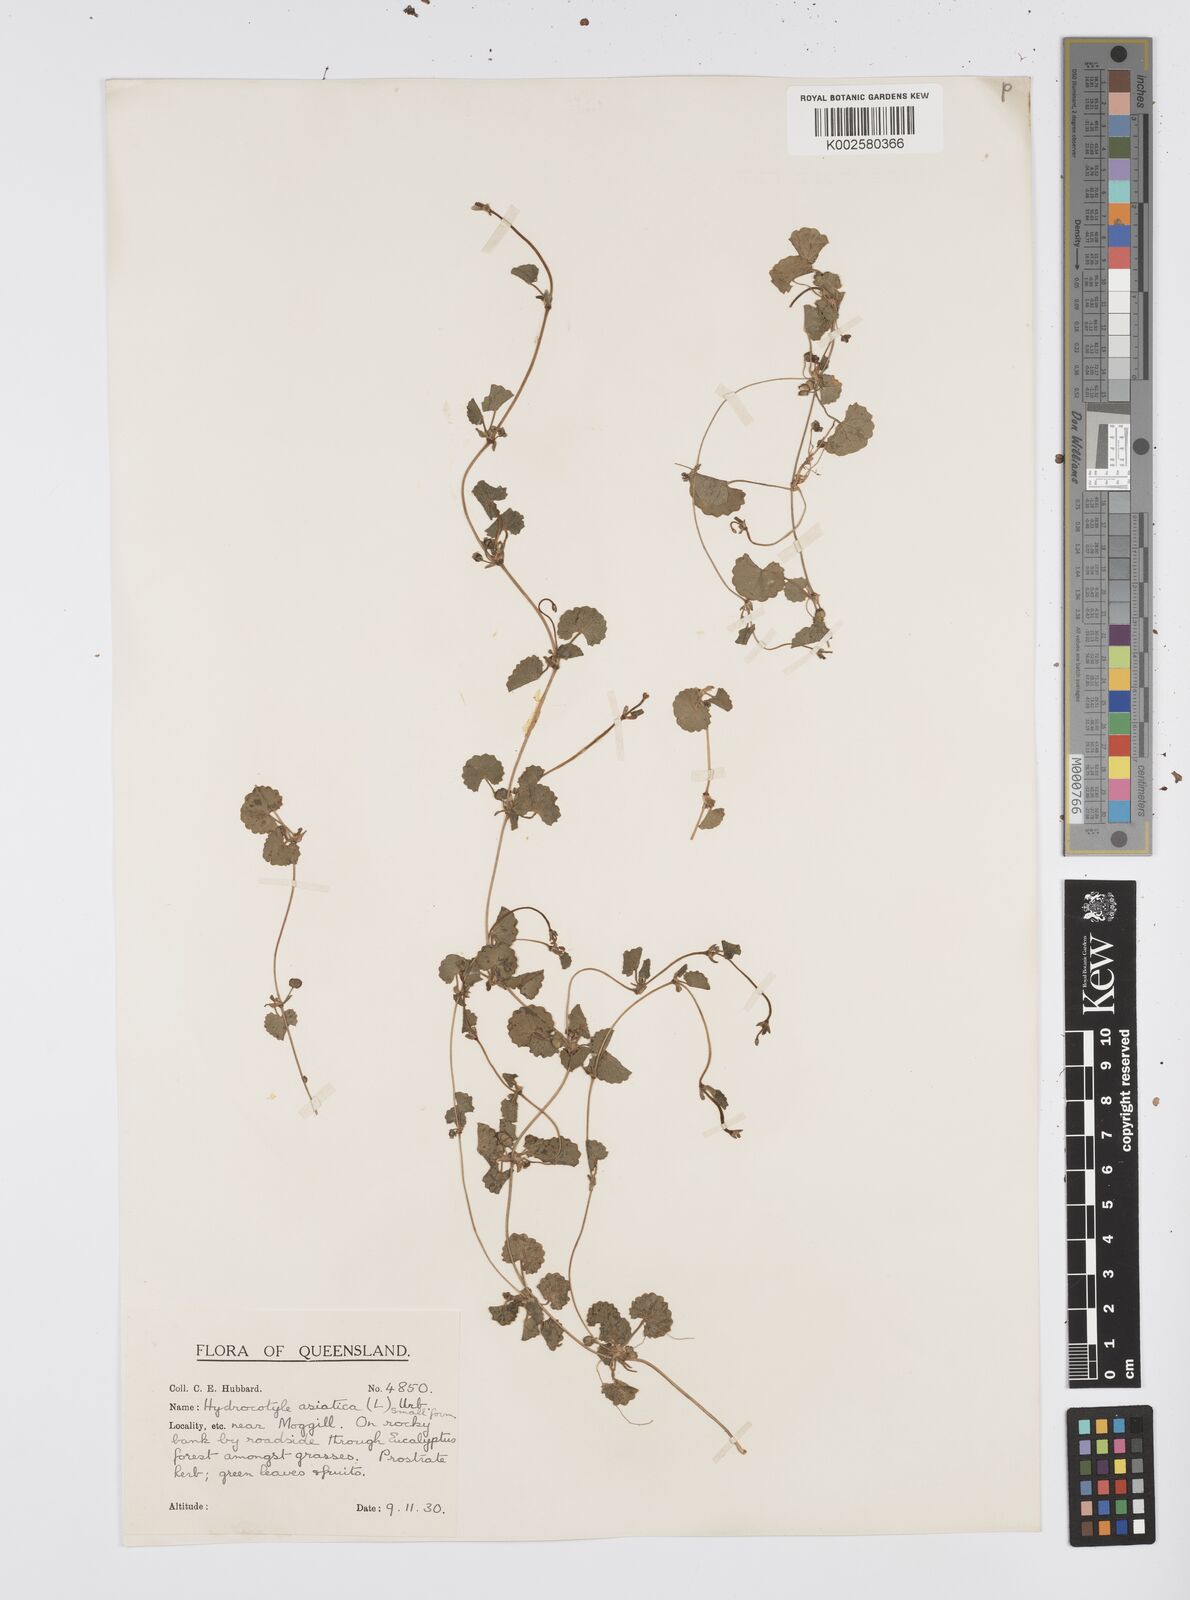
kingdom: Plantae
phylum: Tracheophyta
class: Magnoliopsida
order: Apiales
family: Apiaceae
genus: Centella
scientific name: Centella asiatica
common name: Spadeleaf
